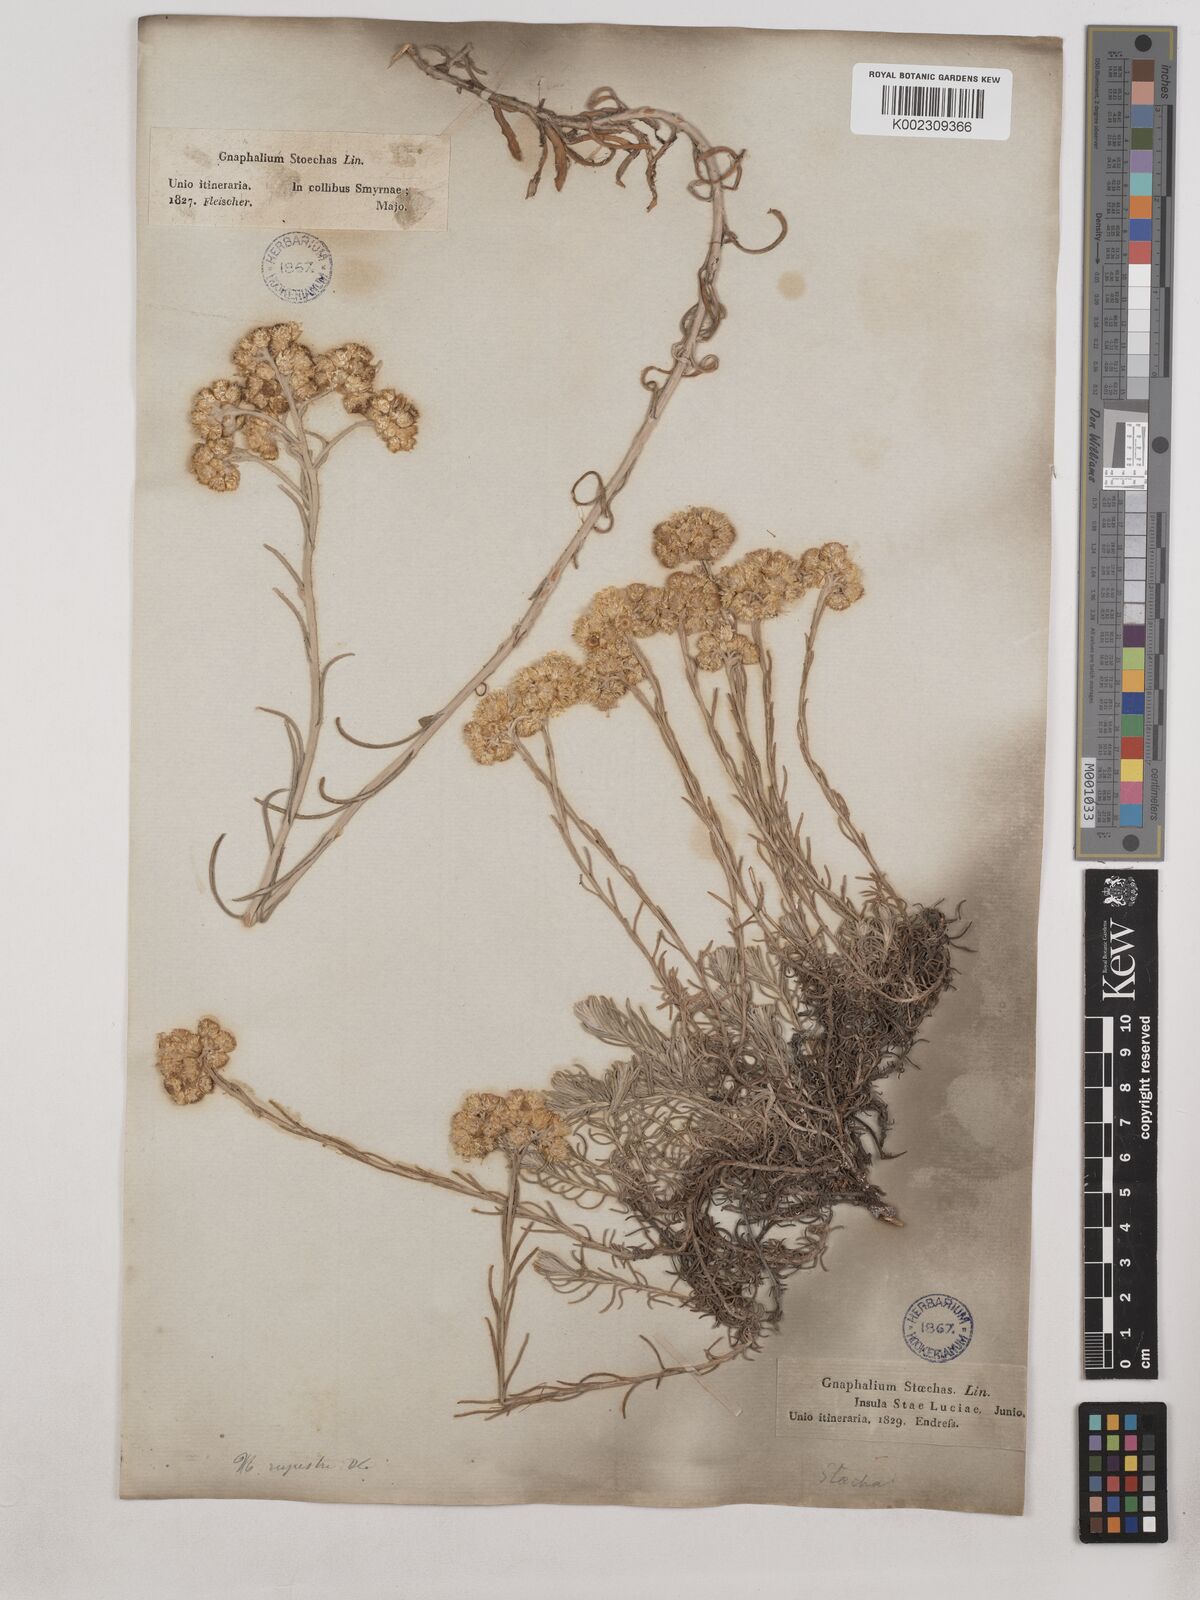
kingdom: Plantae
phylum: Tracheophyta
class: Magnoliopsida
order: Asterales
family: Asteraceae
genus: Helichrysum
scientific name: Helichrysum stoechas
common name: Goldilocks
